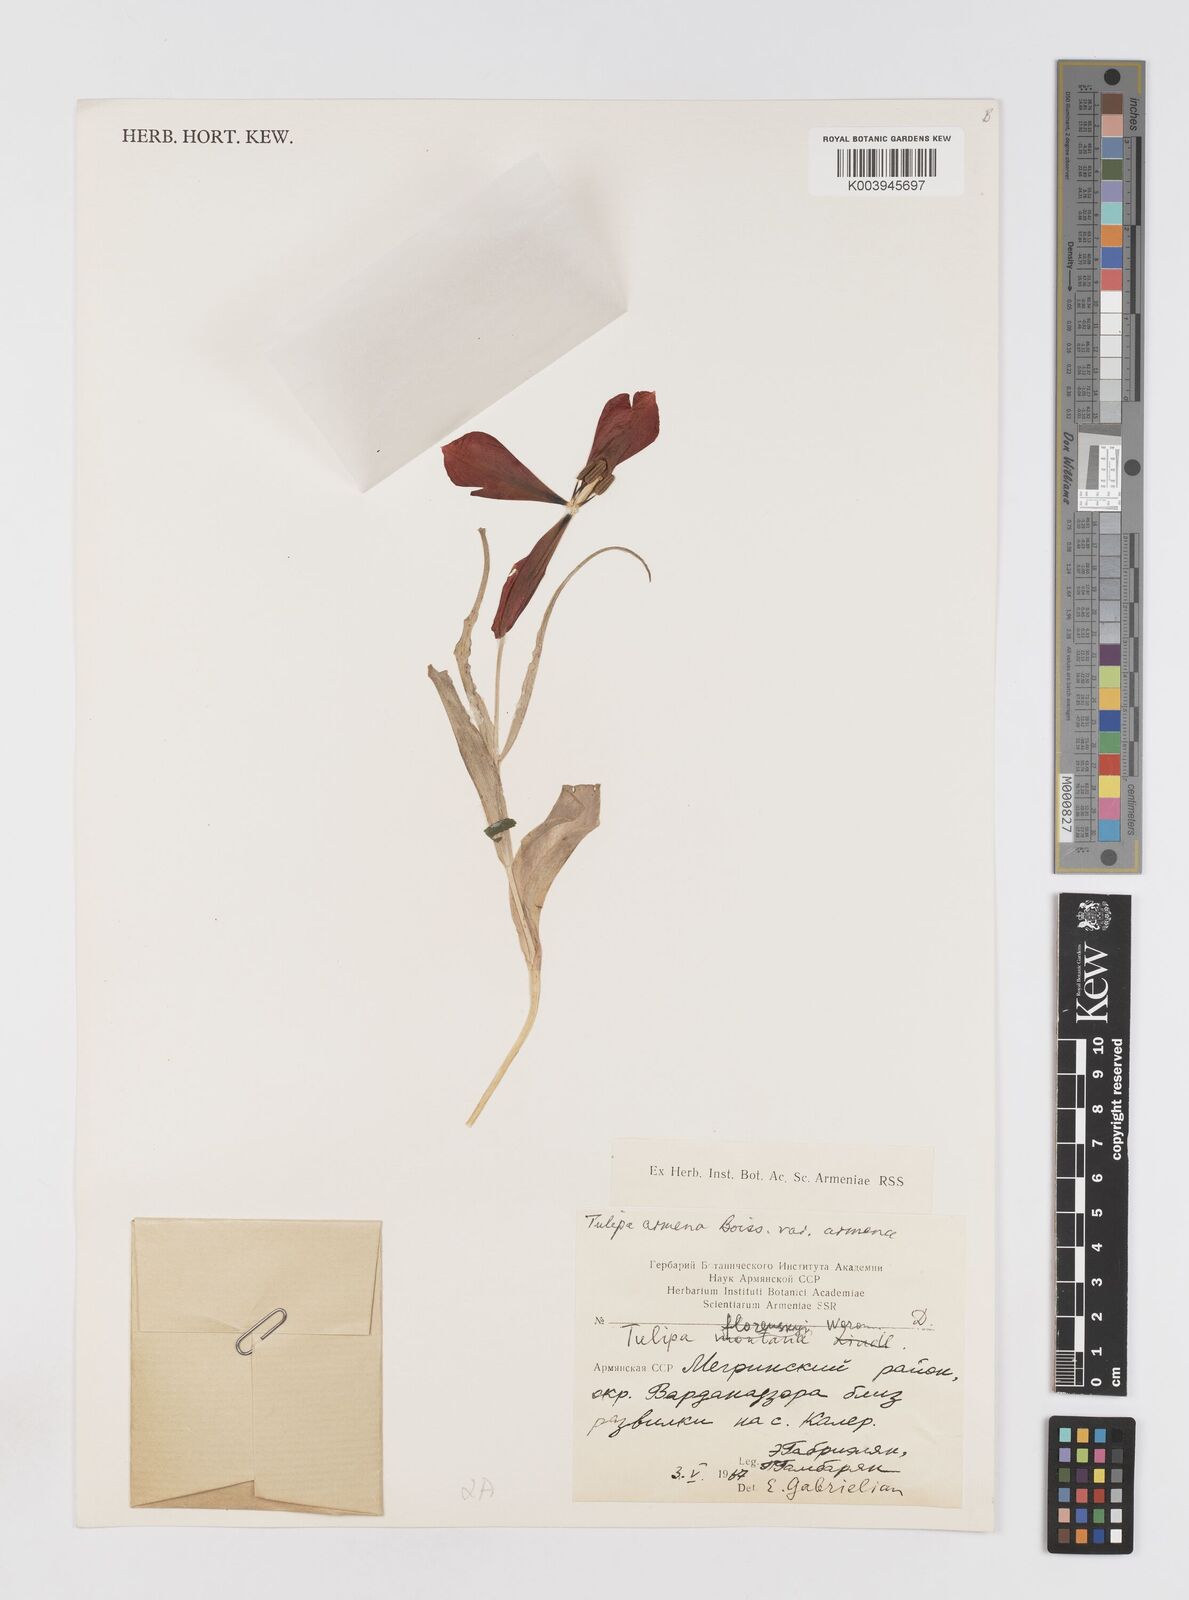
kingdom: Plantae
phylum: Tracheophyta
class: Liliopsida
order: Liliales
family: Liliaceae
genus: Tulipa
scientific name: Tulipa armena
